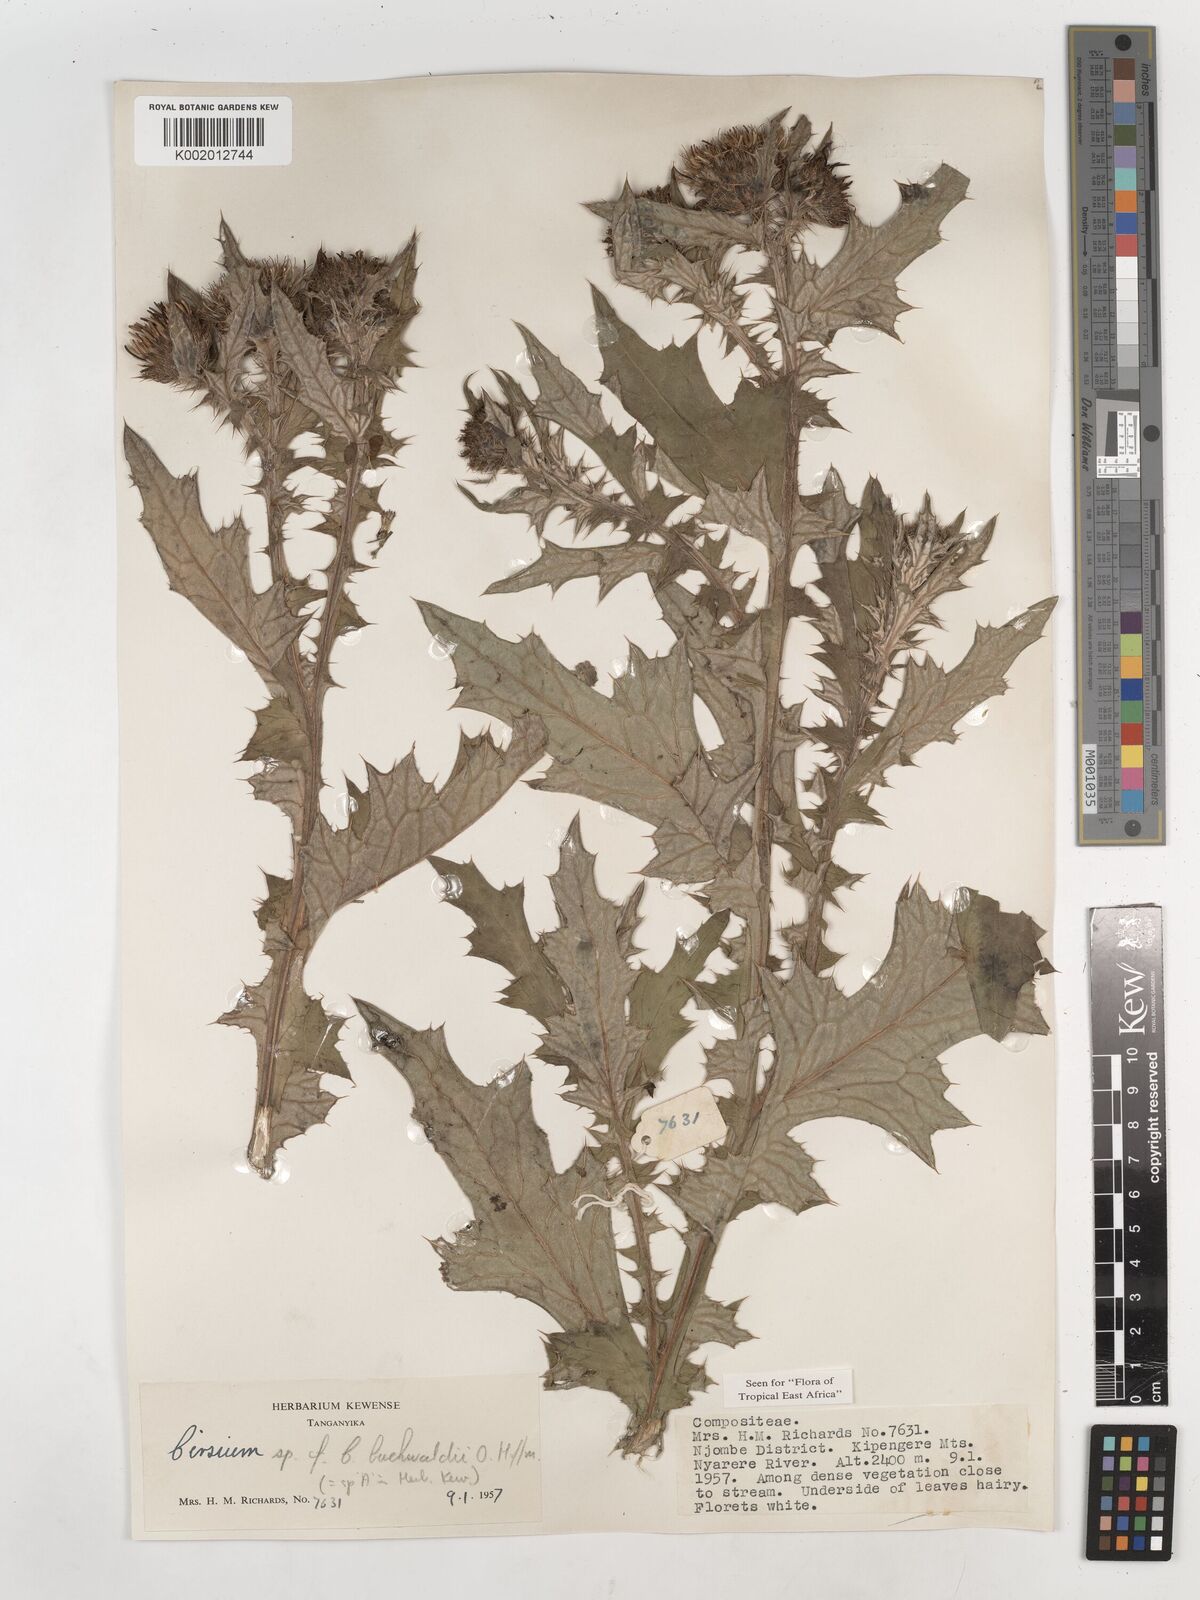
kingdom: Plantae
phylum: Tracheophyta
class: Magnoliopsida
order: Asterales
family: Asteraceae
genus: Cirsium
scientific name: Cirsium buchwaldii
